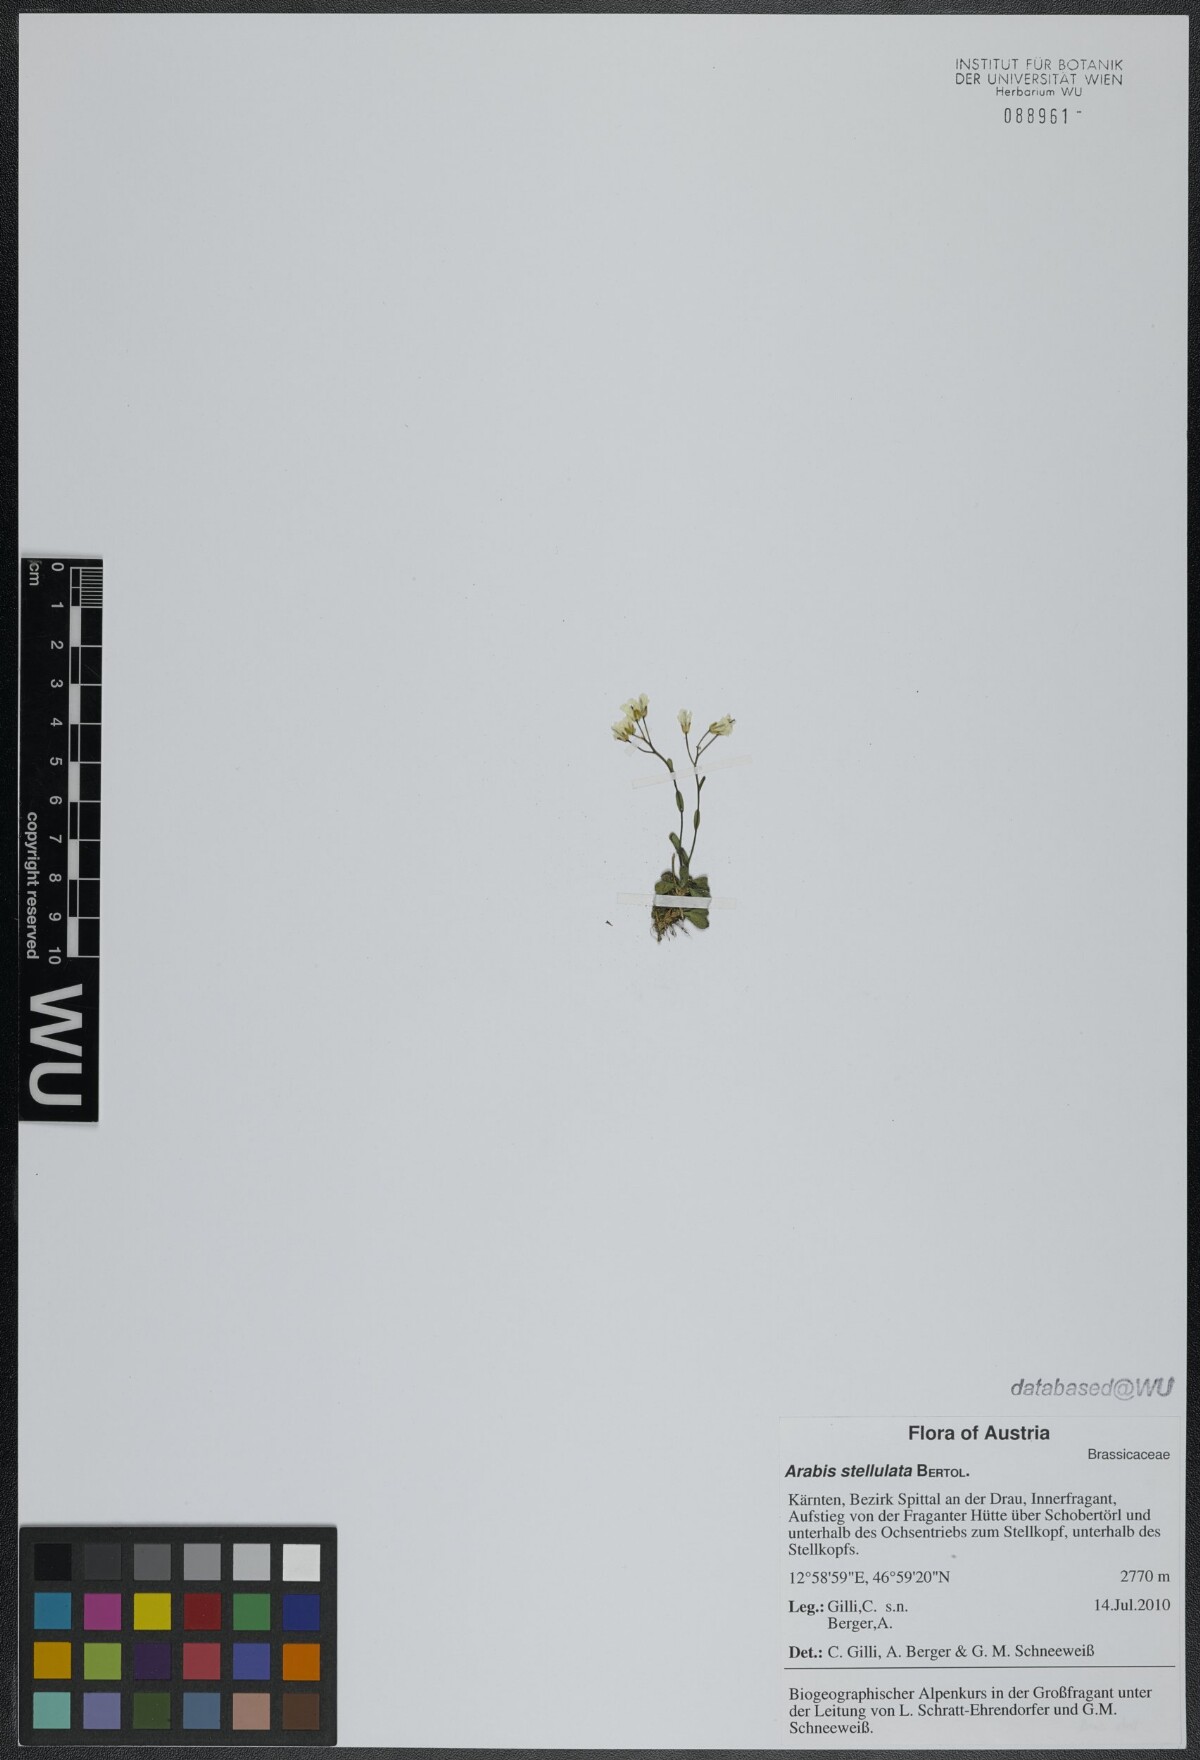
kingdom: Plantae
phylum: Tracheophyta
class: Magnoliopsida
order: Brassicales
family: Brassicaceae
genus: Arabis
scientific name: Arabis stellulata
